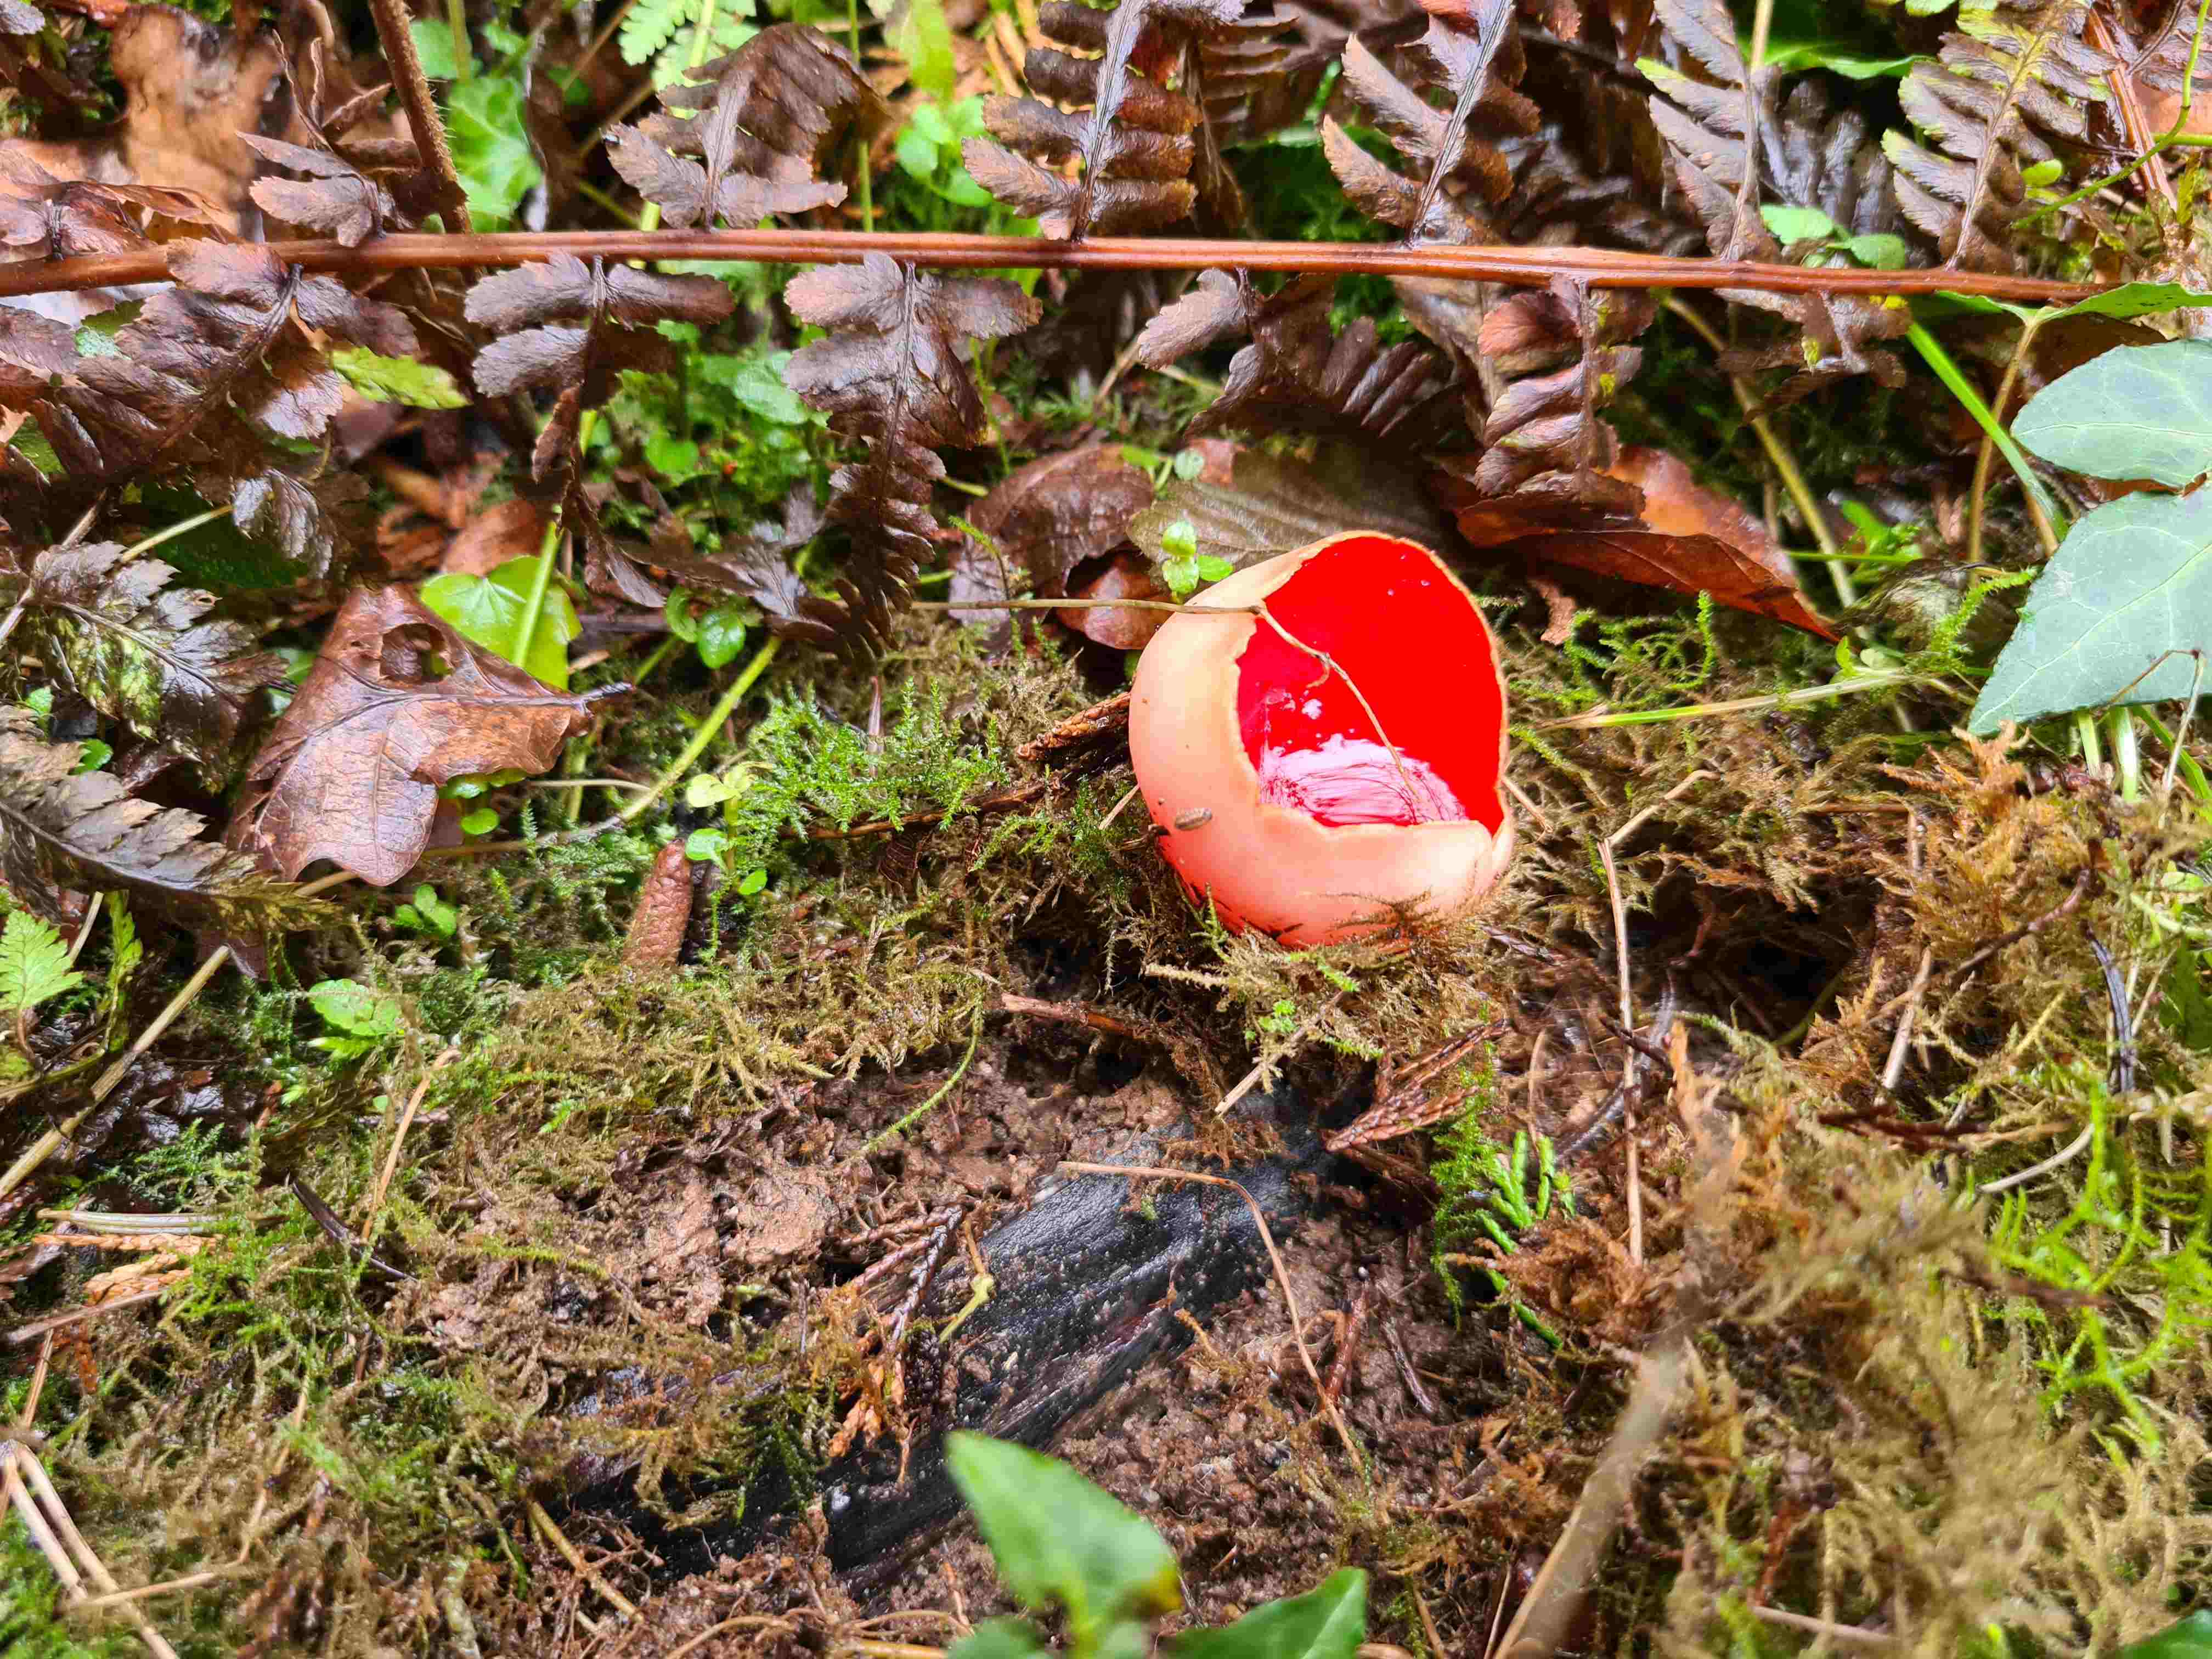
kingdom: Fungi
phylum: Ascomycota
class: Pezizomycetes
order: Pezizales
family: Sarcoscyphaceae
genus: Sarcoscypha
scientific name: Sarcoscypha austriaca
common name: krølhåret pragtbæger
